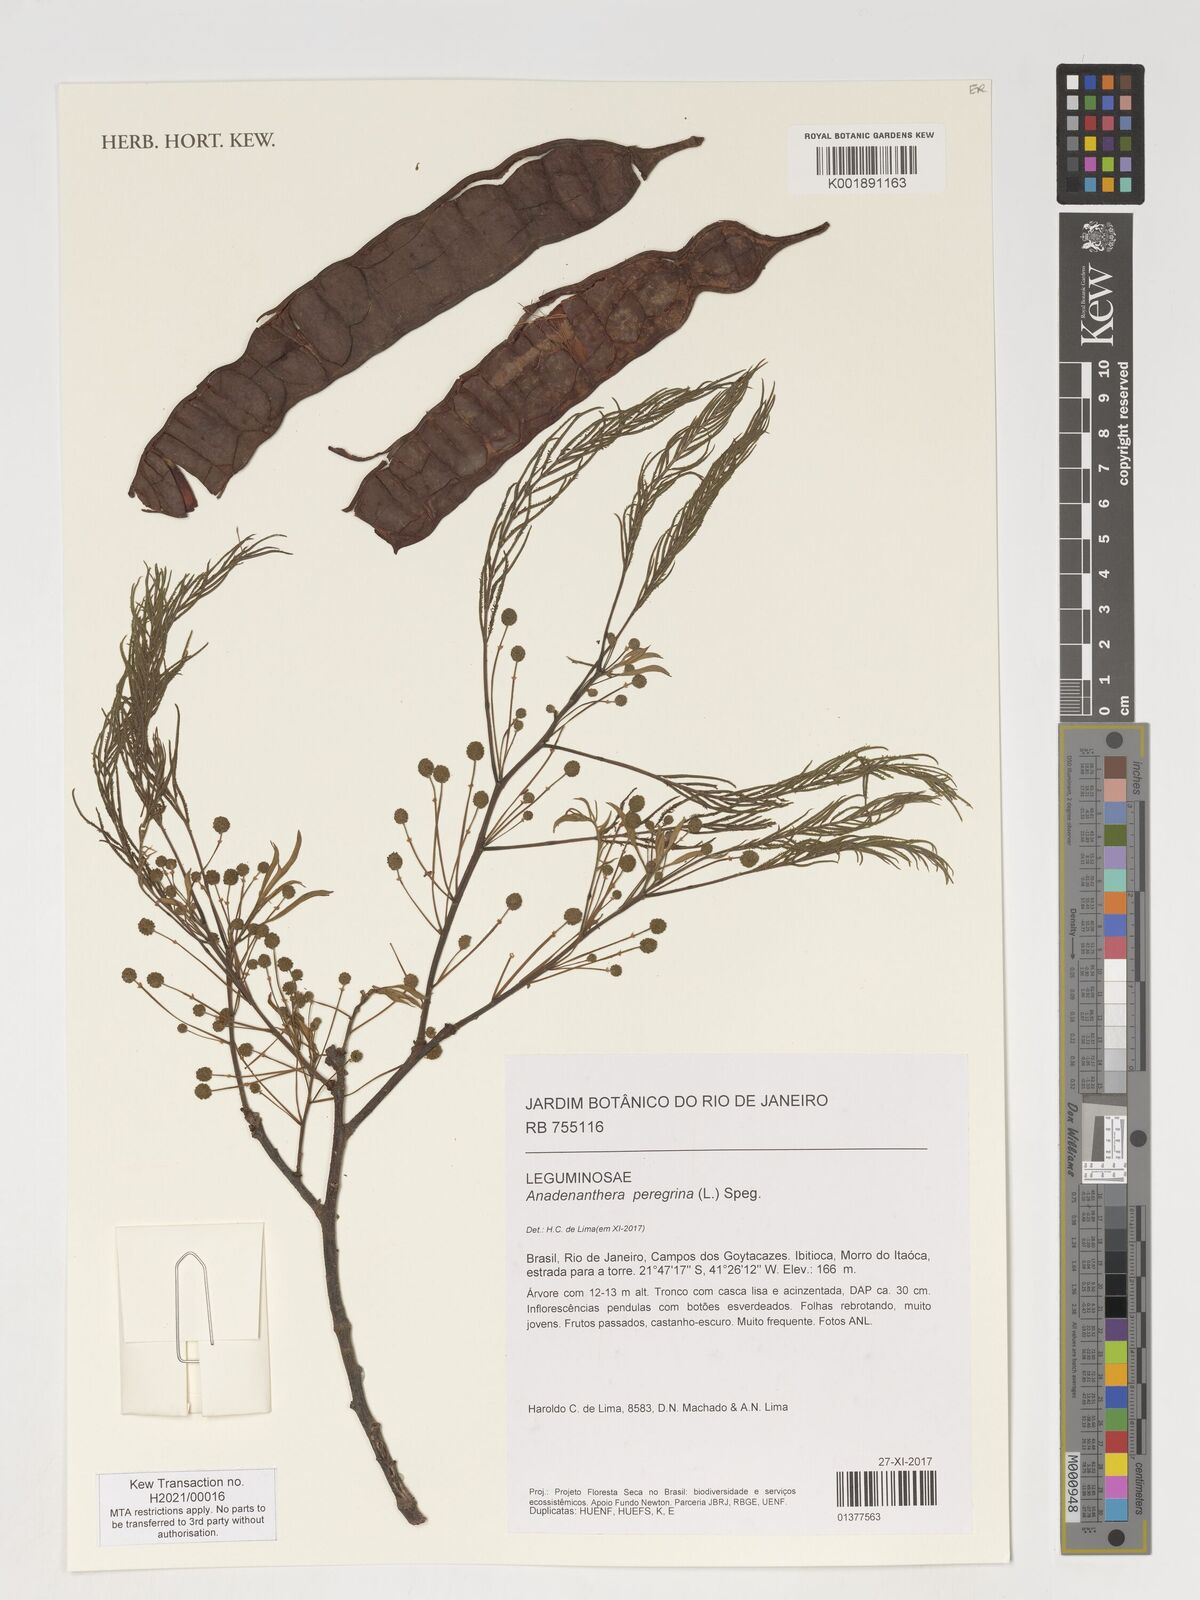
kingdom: Plantae
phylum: Tracheophyta
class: Magnoliopsida
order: Fabales
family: Fabaceae
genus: Anadenanthera
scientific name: Anadenanthera peregrina
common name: Cohoba
